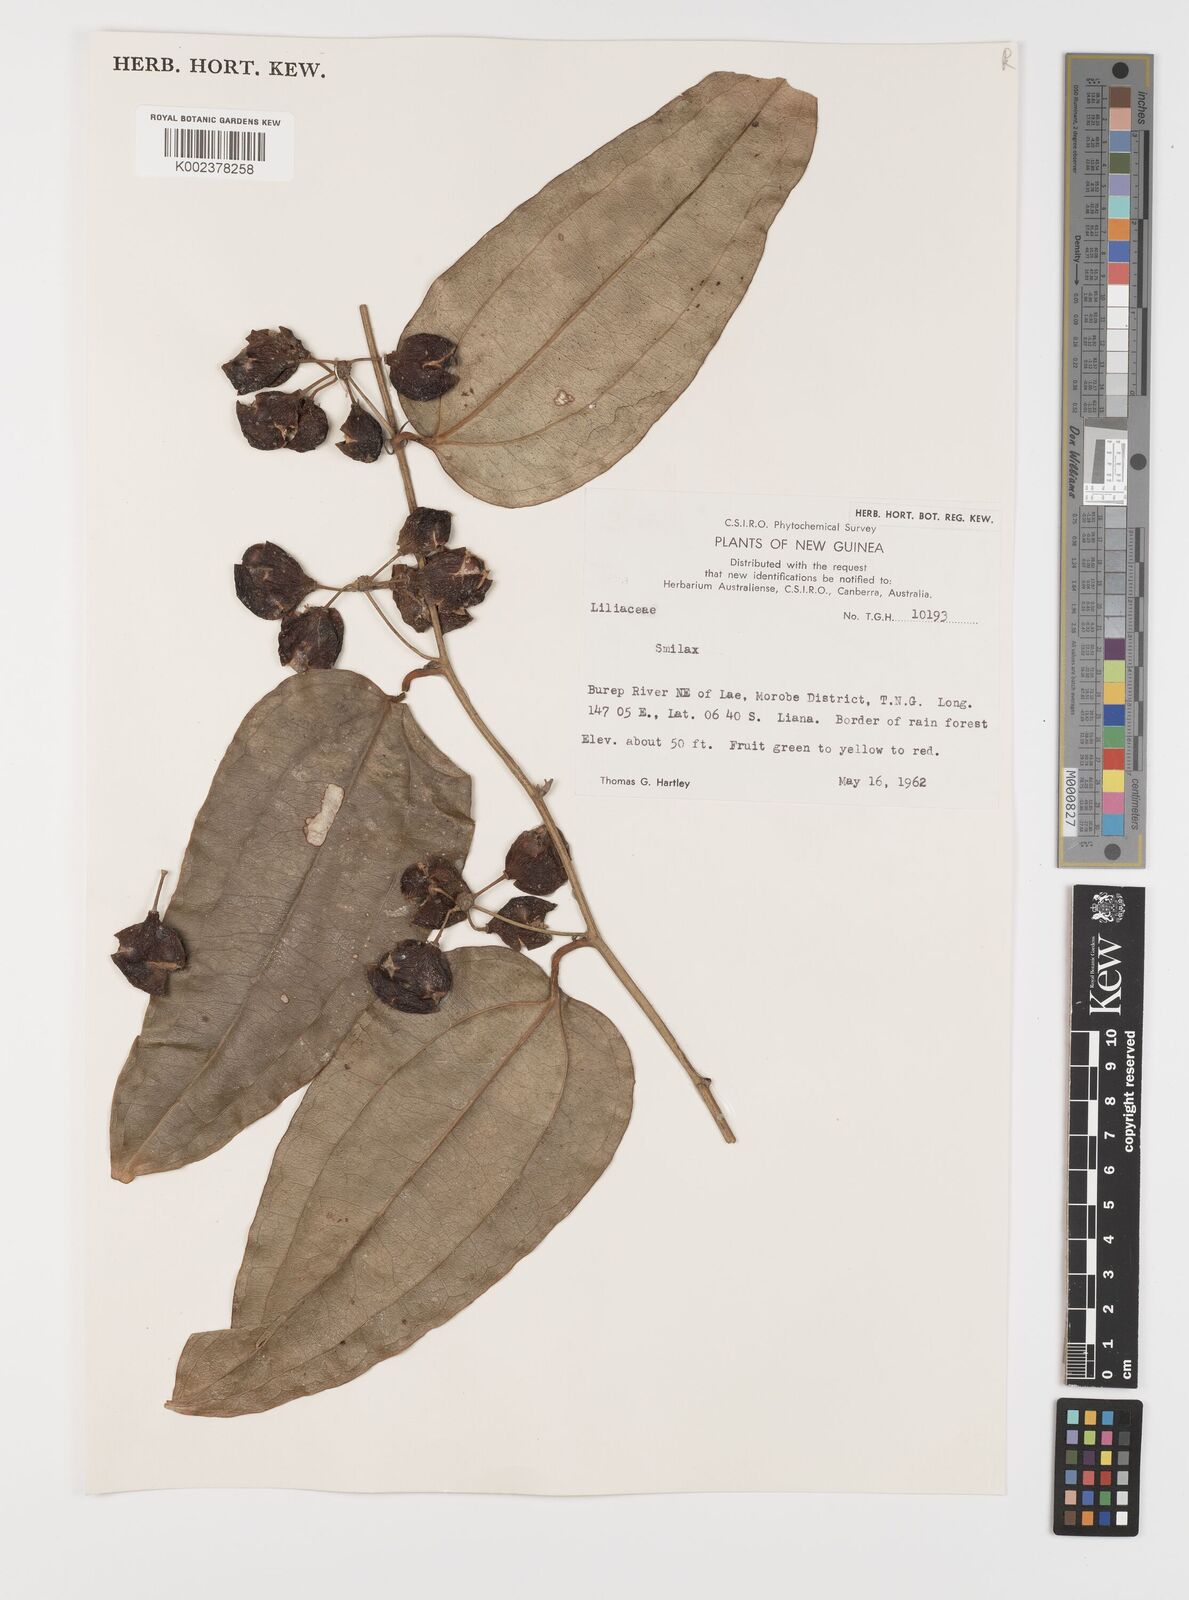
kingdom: Plantae
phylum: Tracheophyta
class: Liliopsida
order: Liliales
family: Smilacaceae
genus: Smilax
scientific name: Smilax
